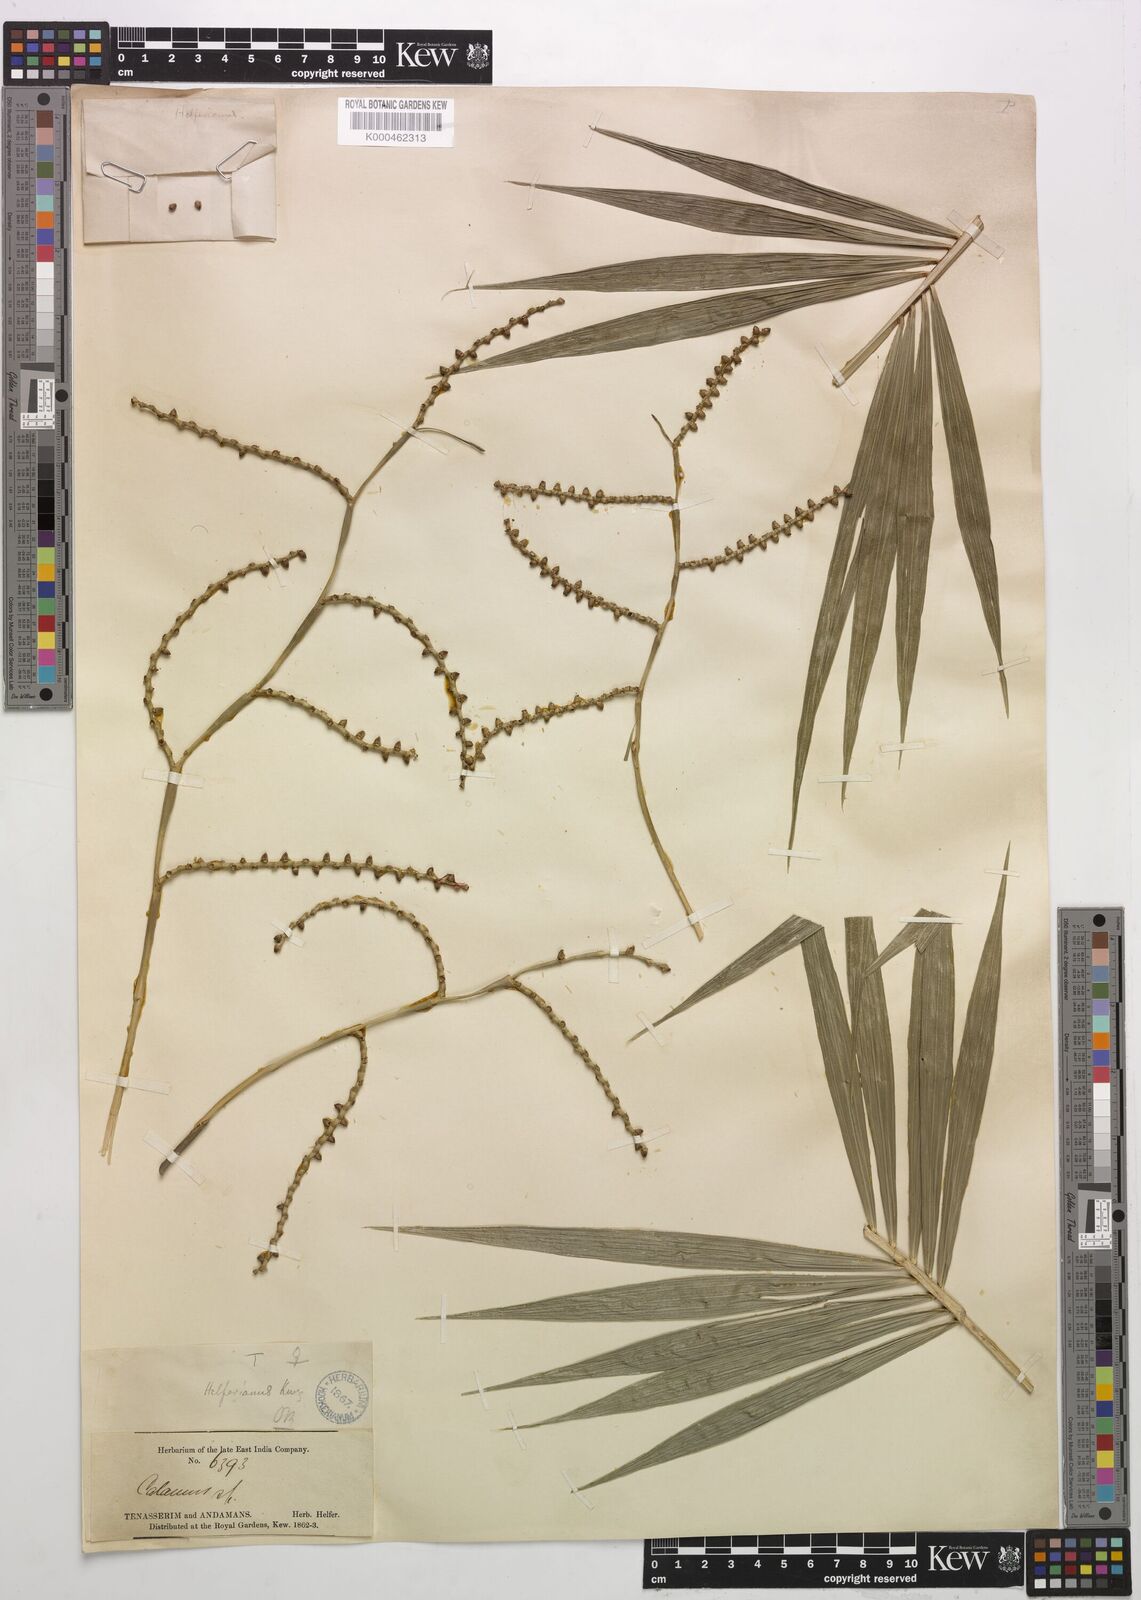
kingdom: Plantae
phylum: Tracheophyta
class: Liliopsida
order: Arecales
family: Arecaceae
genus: Calamus
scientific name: Calamus helferianus
